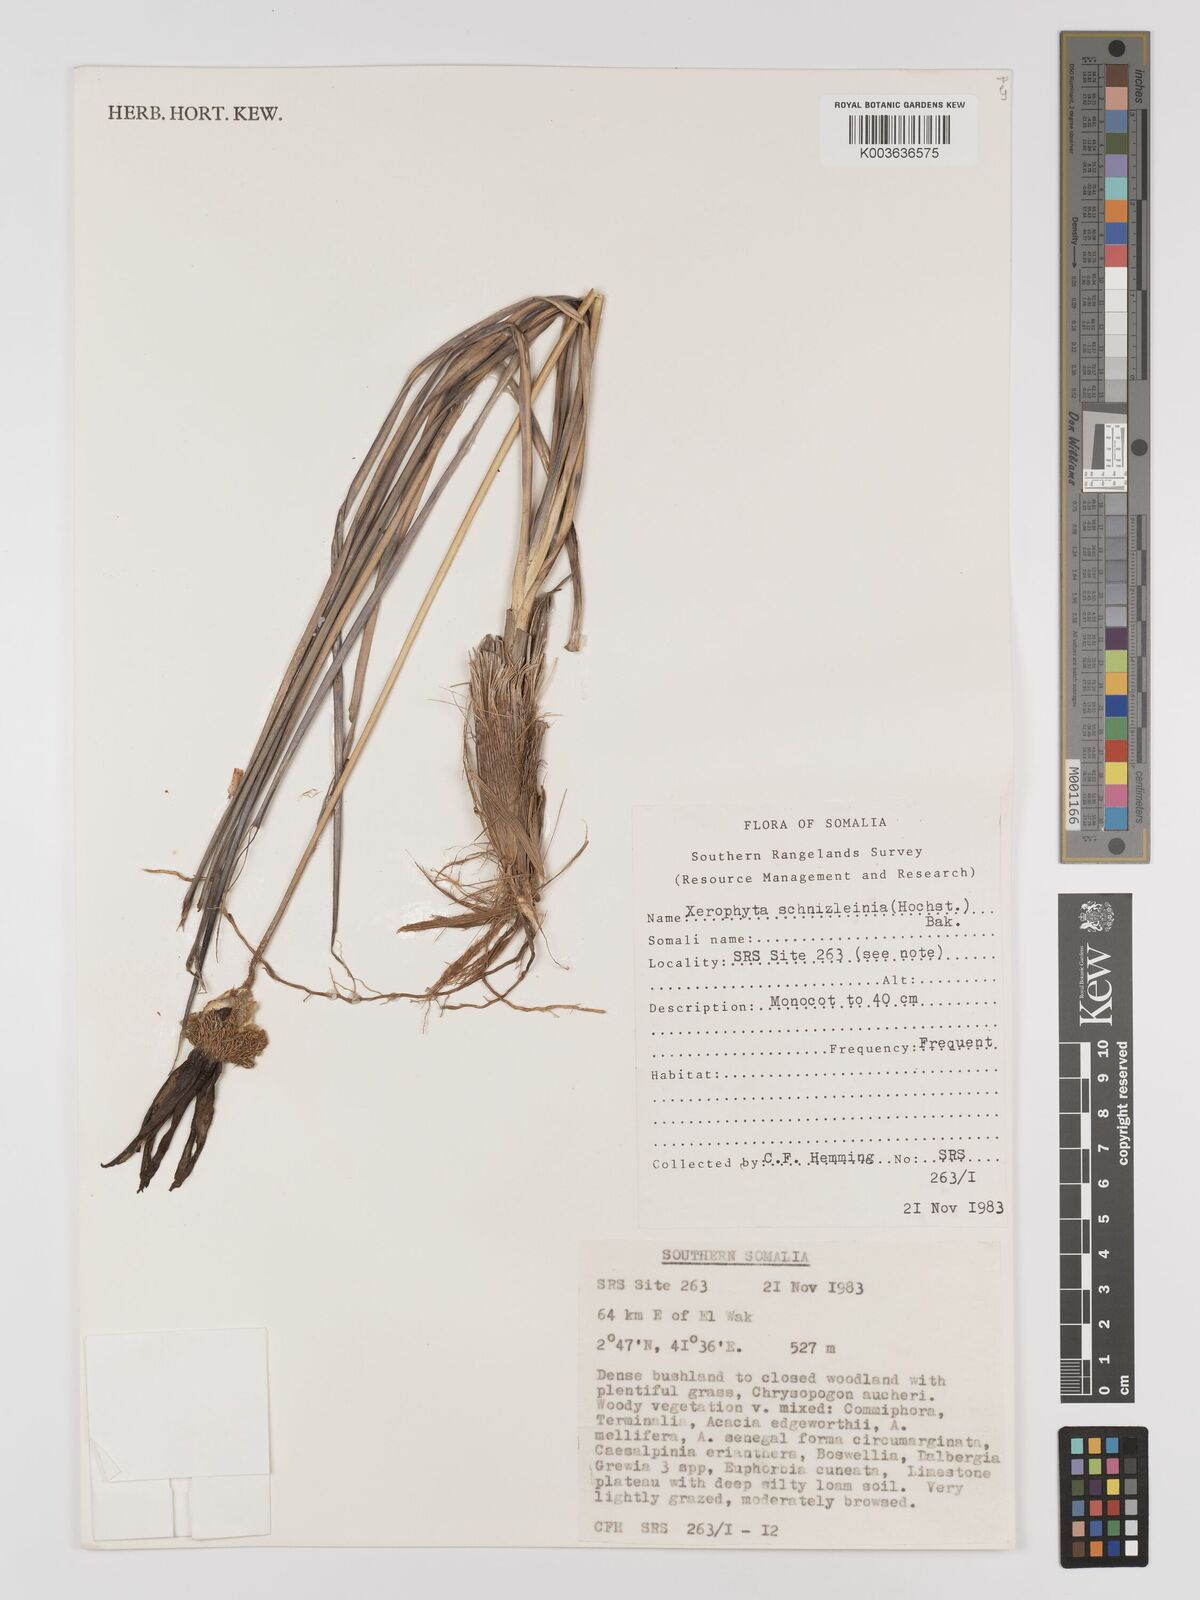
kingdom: Plantae
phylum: Tracheophyta
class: Liliopsida
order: Pandanales
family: Velloziaceae
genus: Xerophyta
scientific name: Xerophyta schnizleinia
